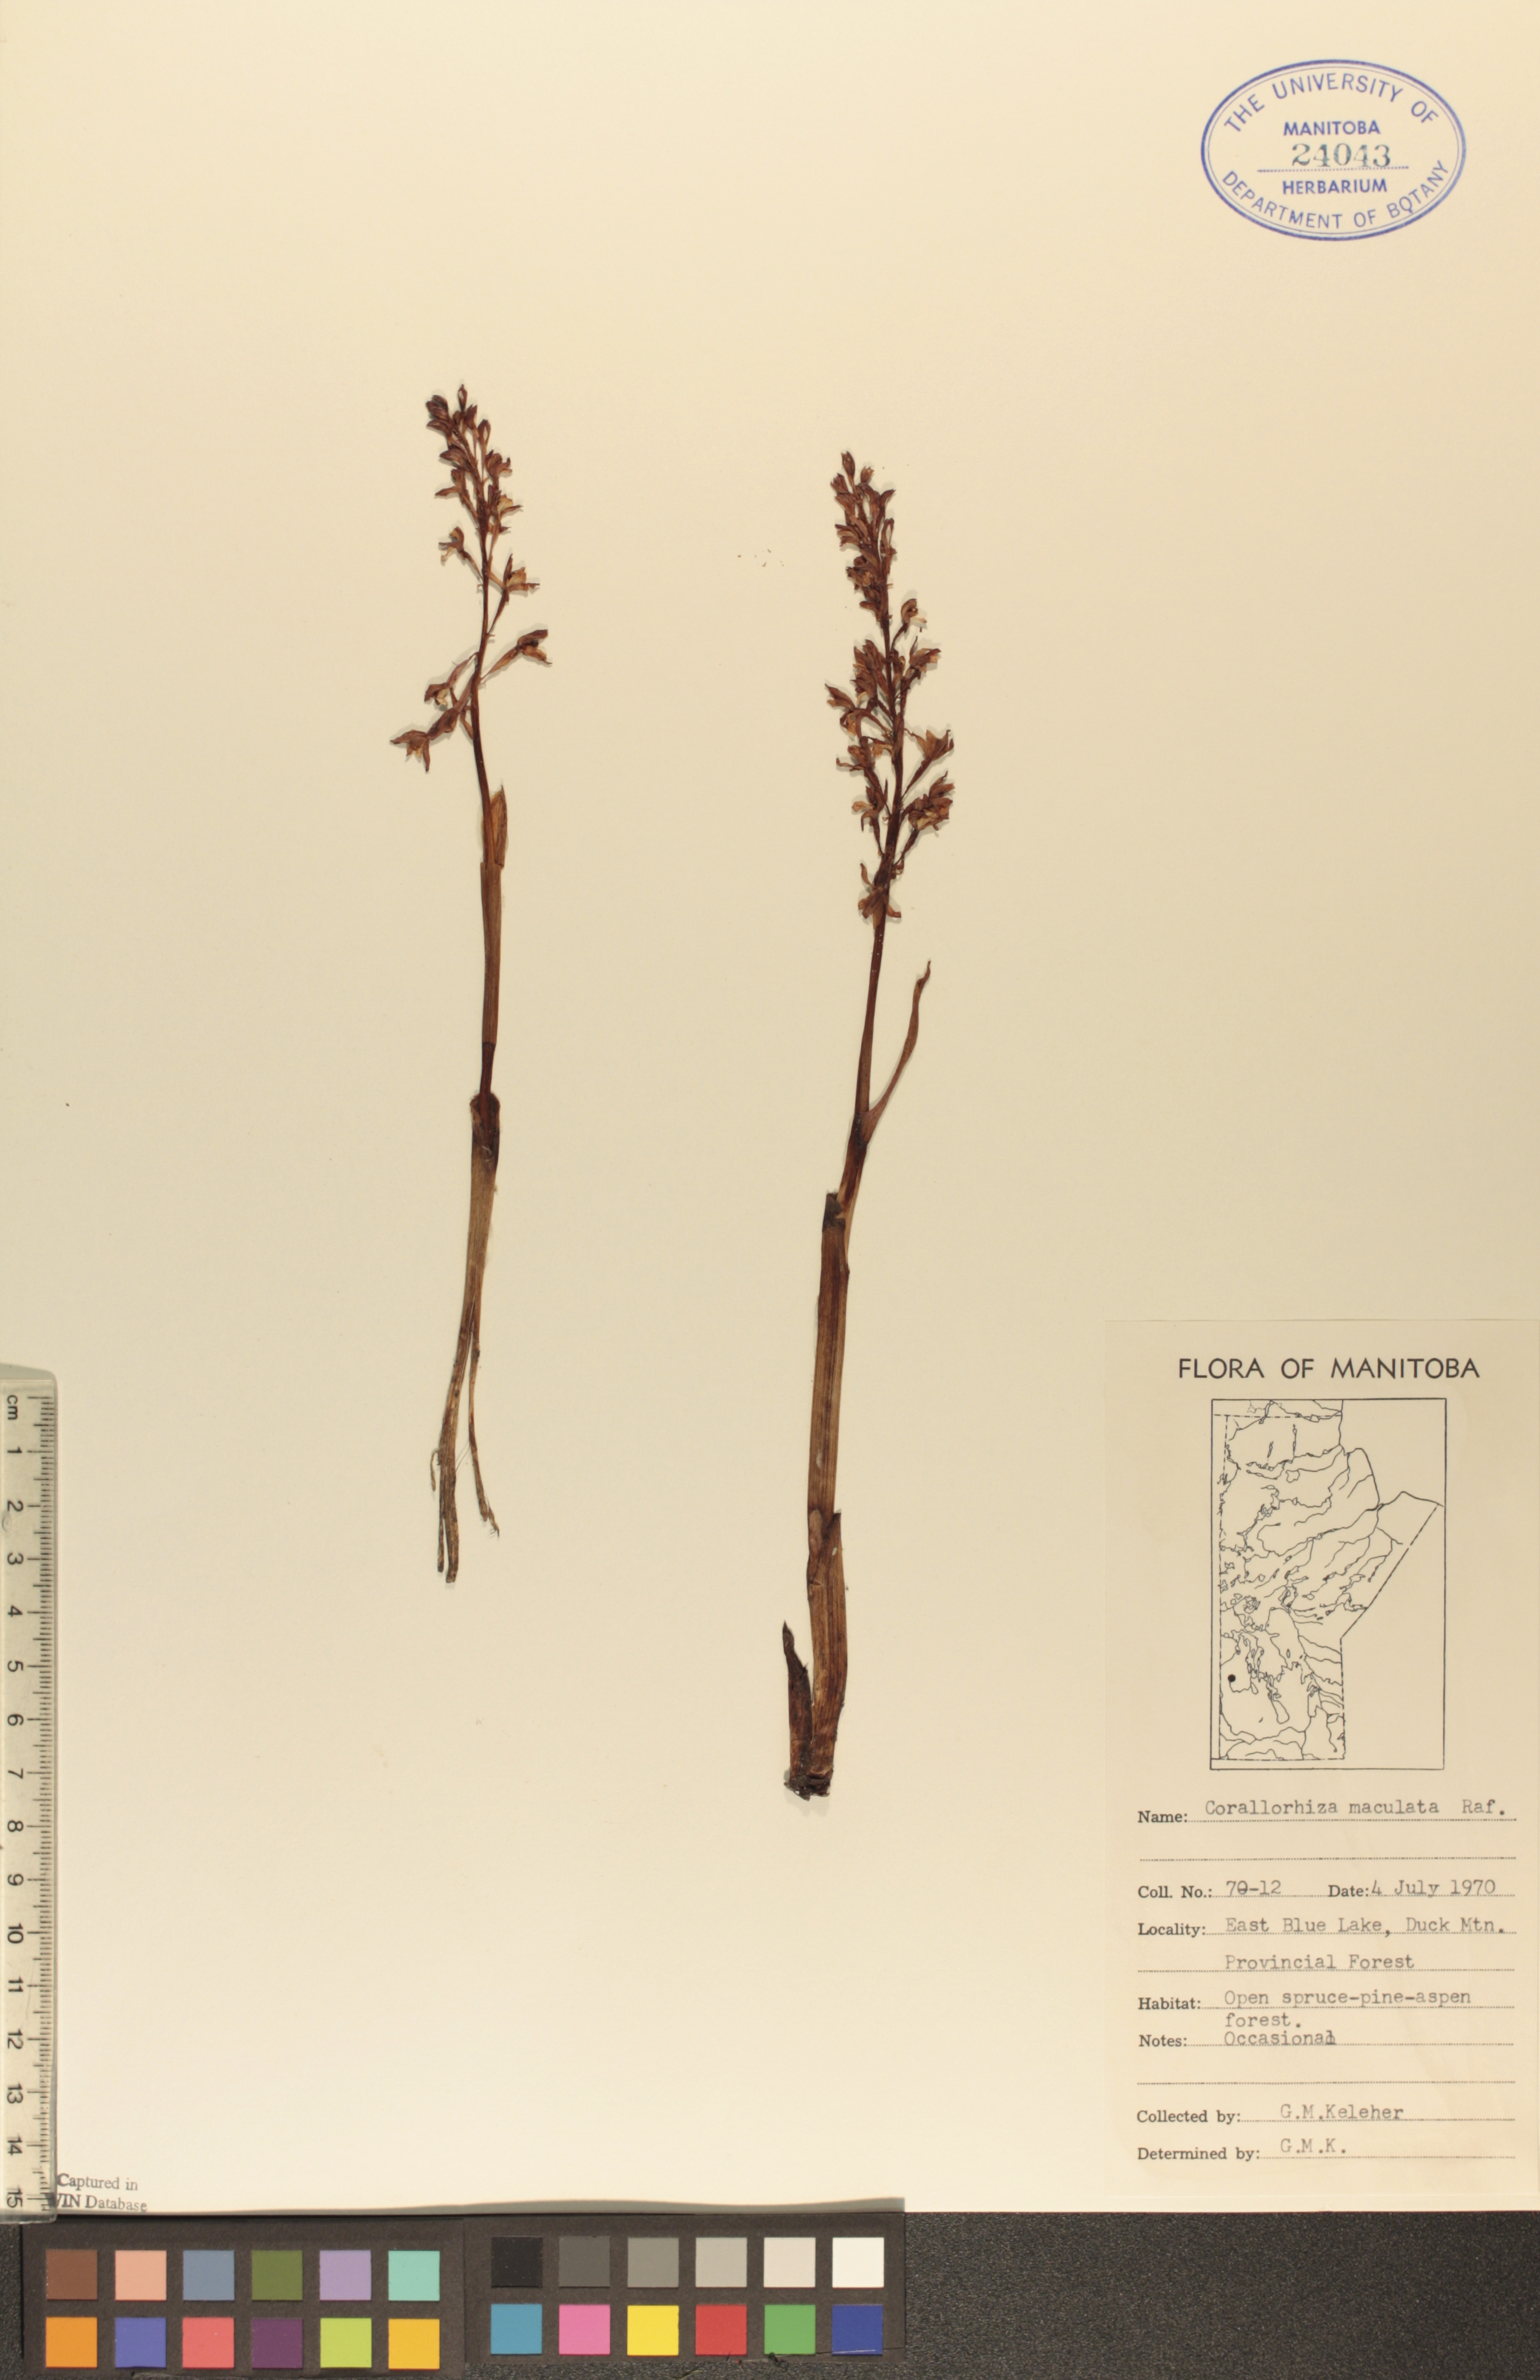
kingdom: Plantae
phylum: Tracheophyta
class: Liliopsida
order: Asparagales
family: Orchidaceae
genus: Corallorhiza
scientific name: Corallorhiza maculata
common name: Spotted coralroot
